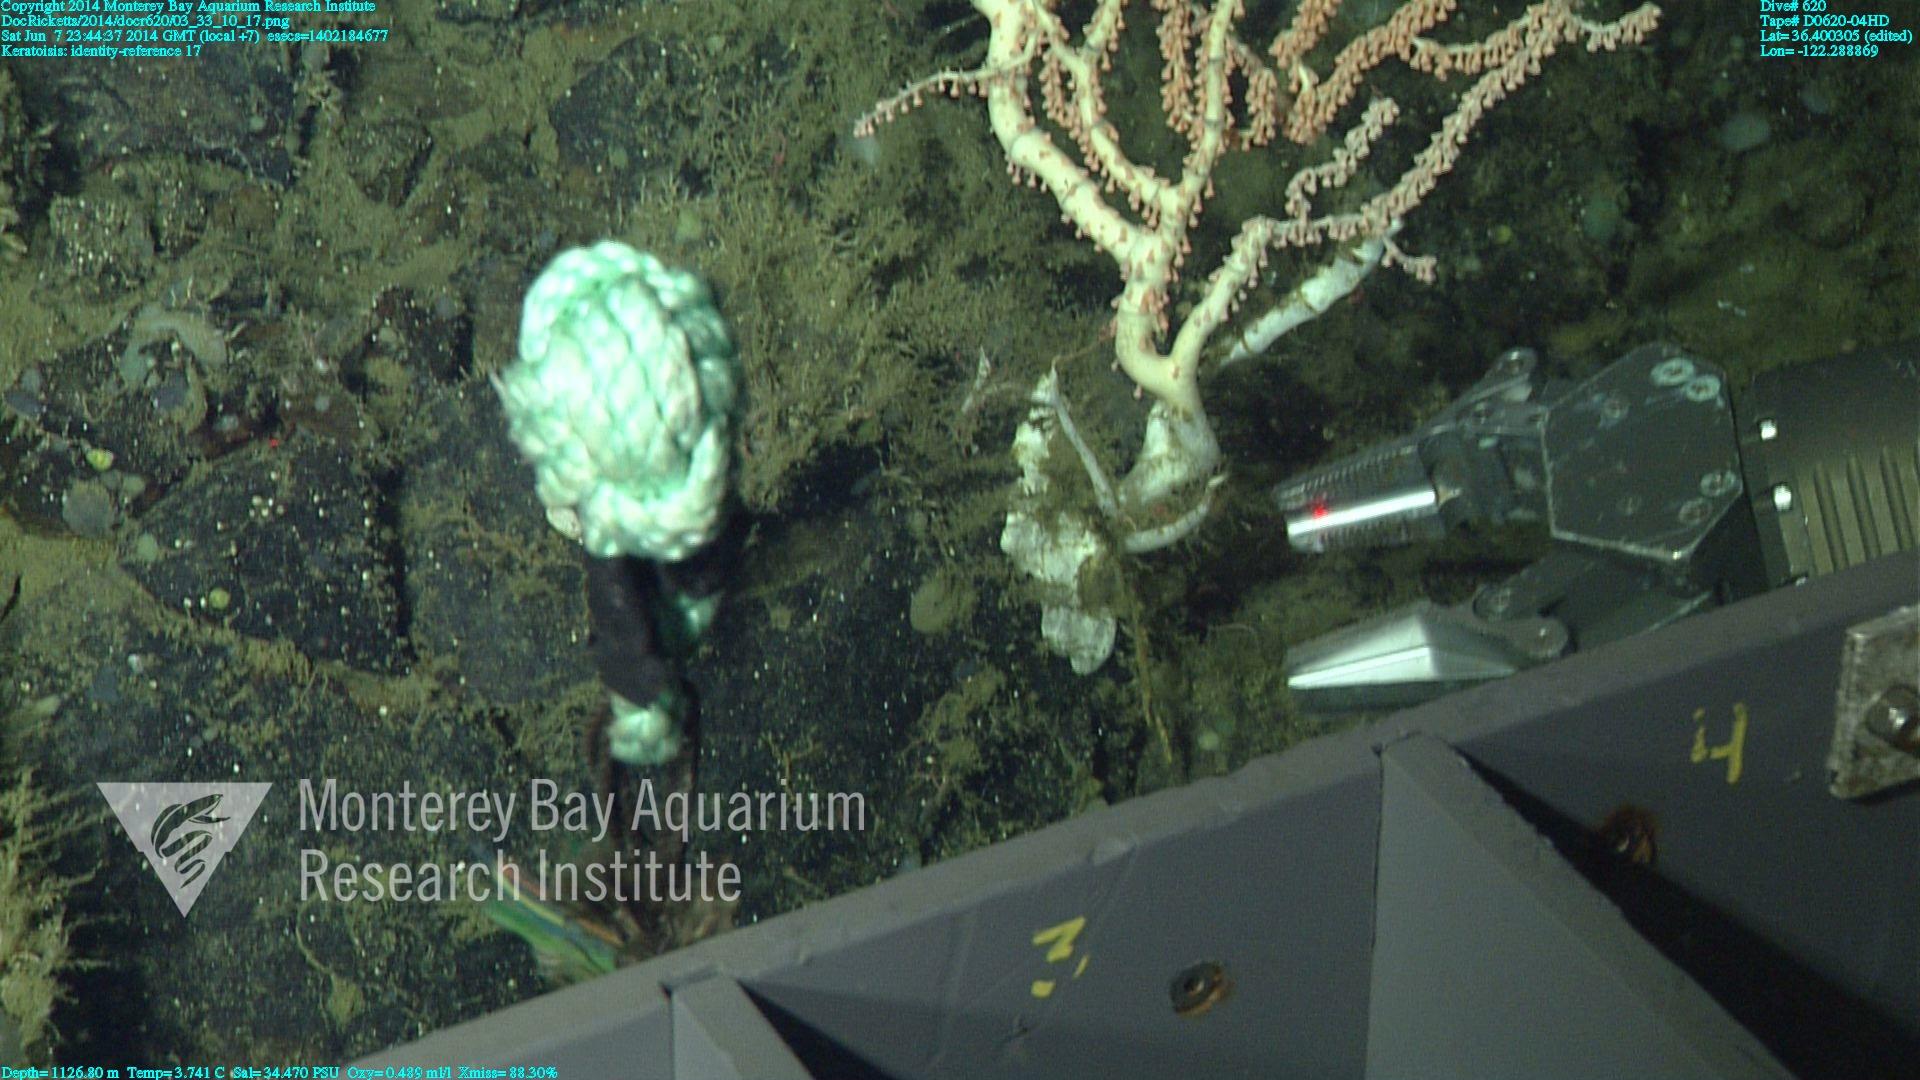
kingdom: Animalia
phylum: Cnidaria
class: Anthozoa
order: Scleralcyonacea
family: Keratoisididae
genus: Keratoisis
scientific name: Keratoisis
